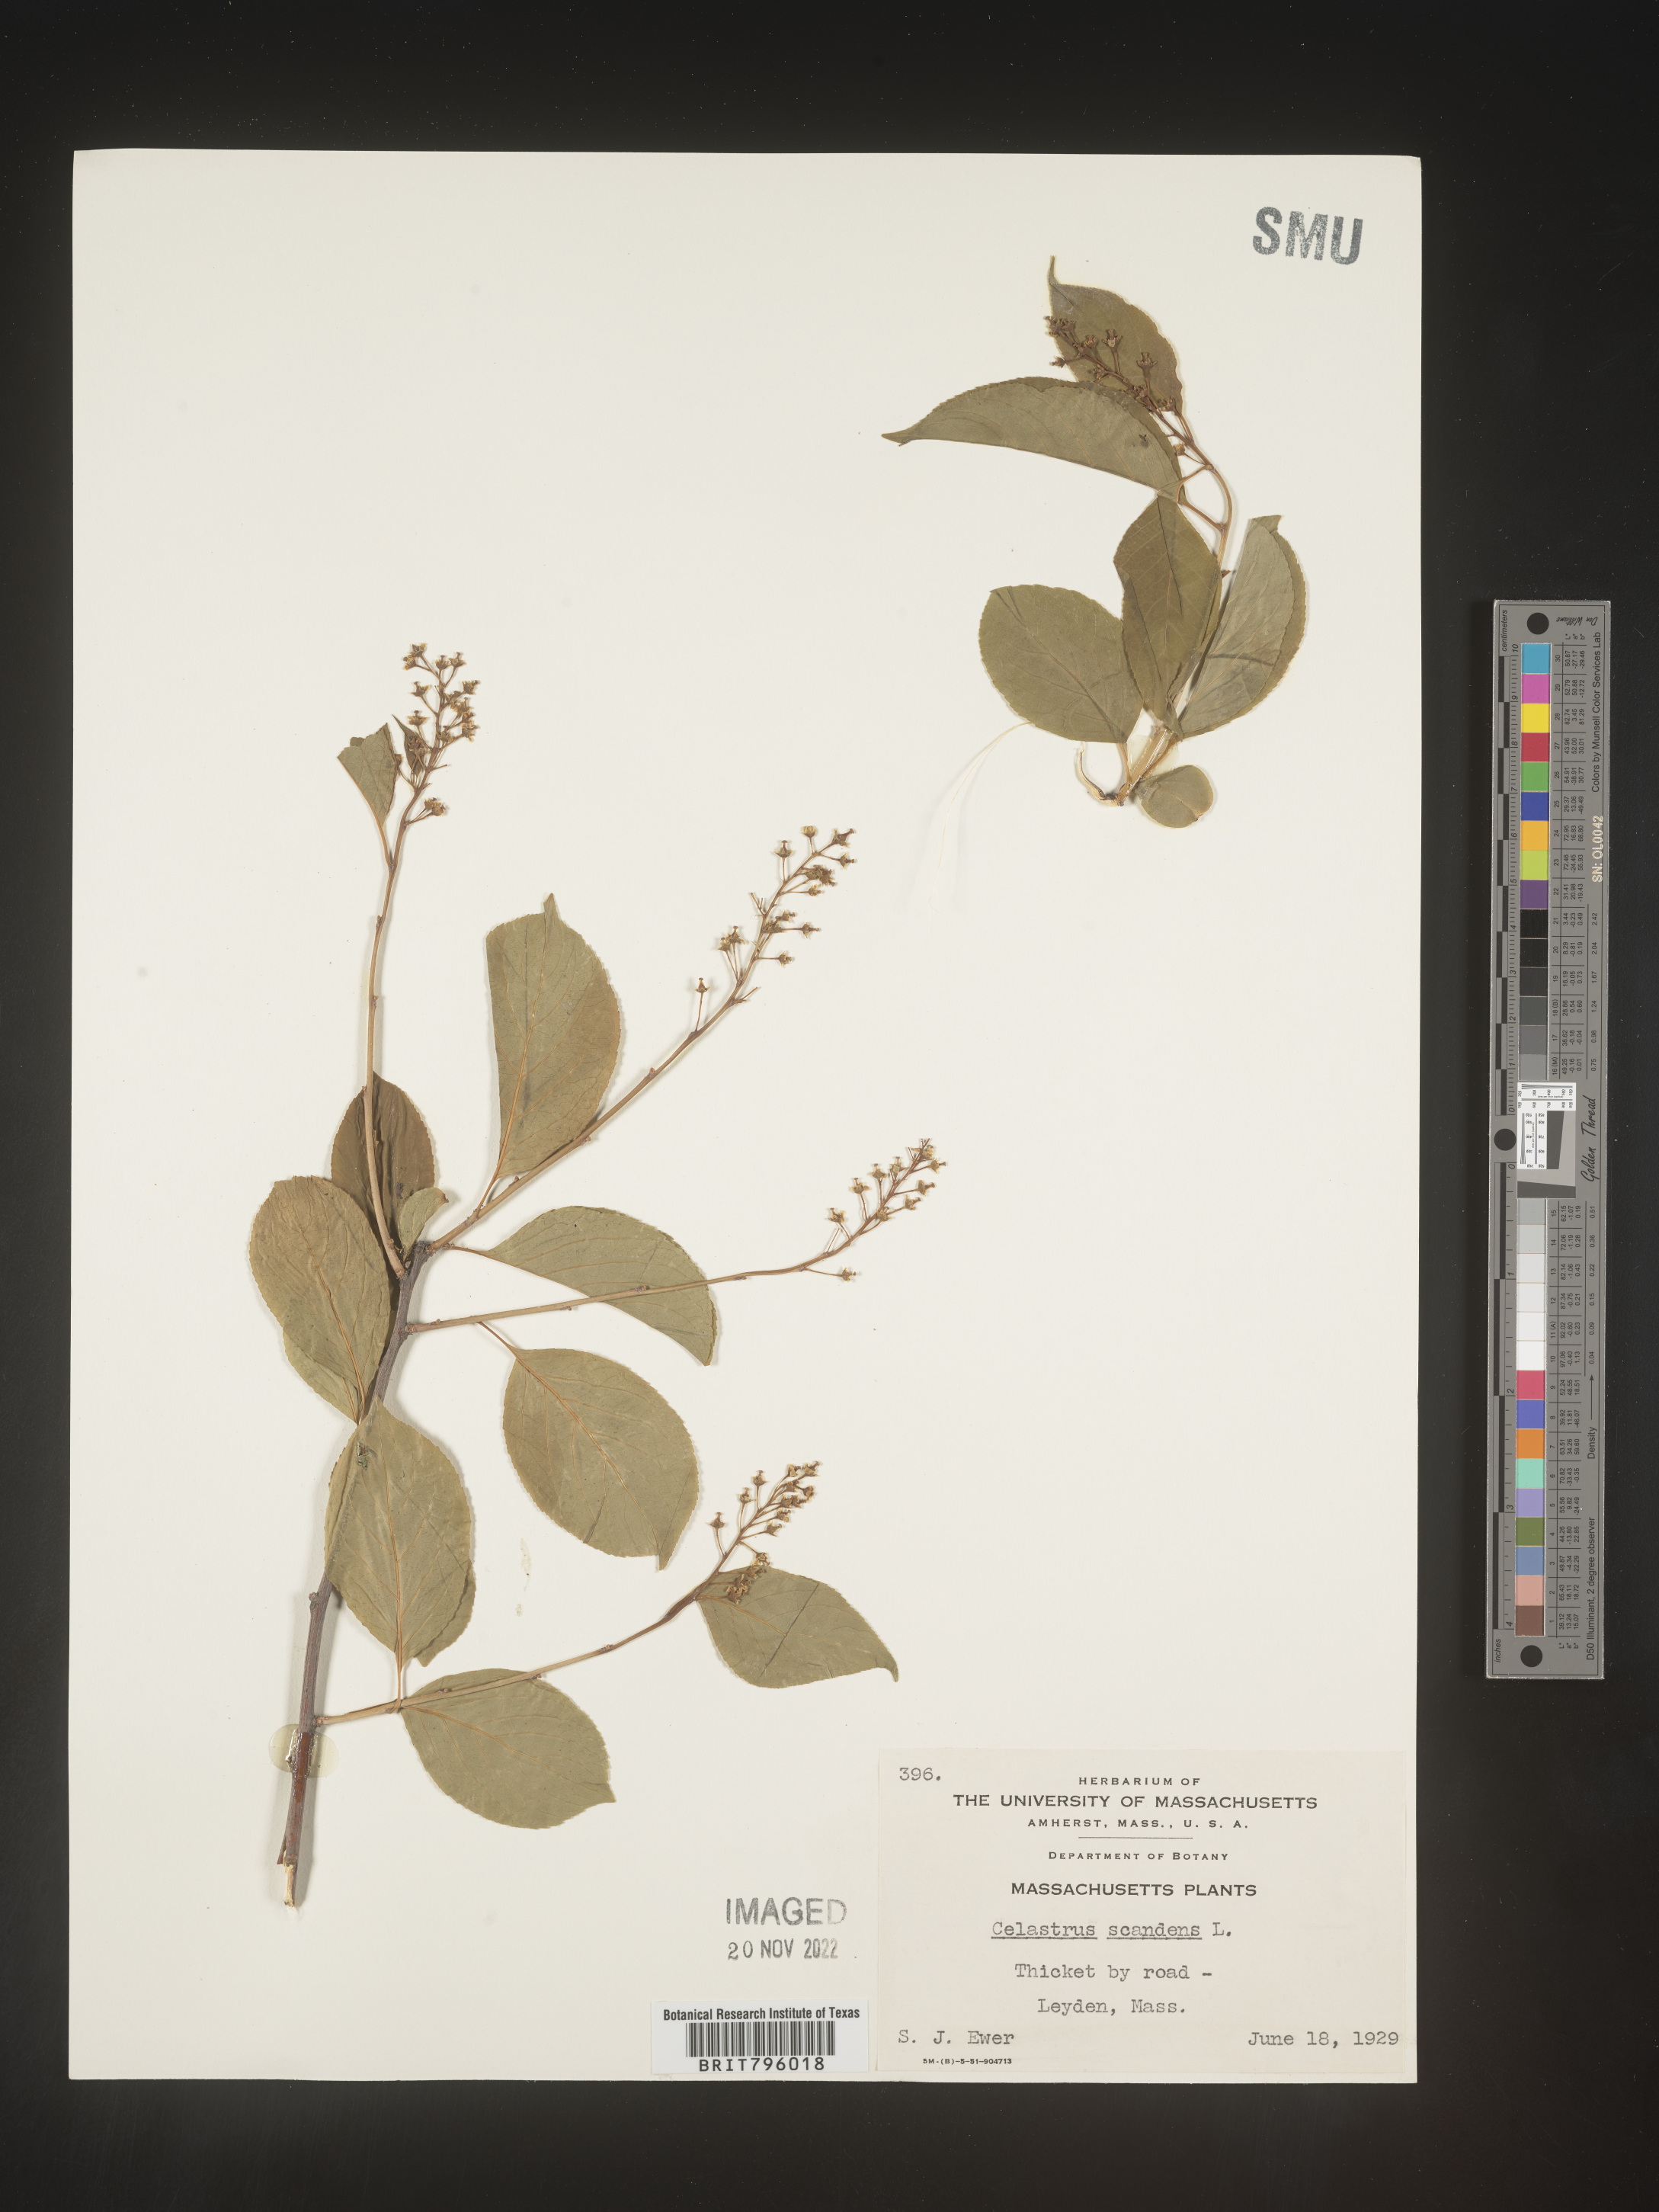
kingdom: Plantae
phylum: Tracheophyta
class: Magnoliopsida
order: Celastrales
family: Celastraceae
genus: Celastrus
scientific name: Celastrus scandens
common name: American bittersweet
